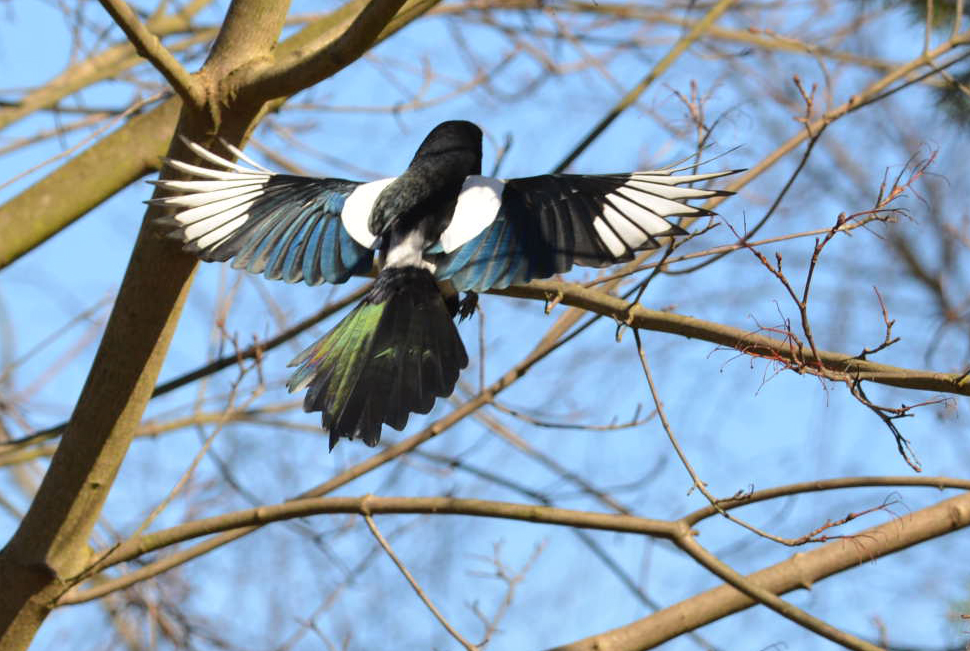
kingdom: Animalia
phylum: Chordata
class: Aves
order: Passeriformes
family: Corvidae
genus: Pica
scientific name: Pica pica
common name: Eurasian magpie
